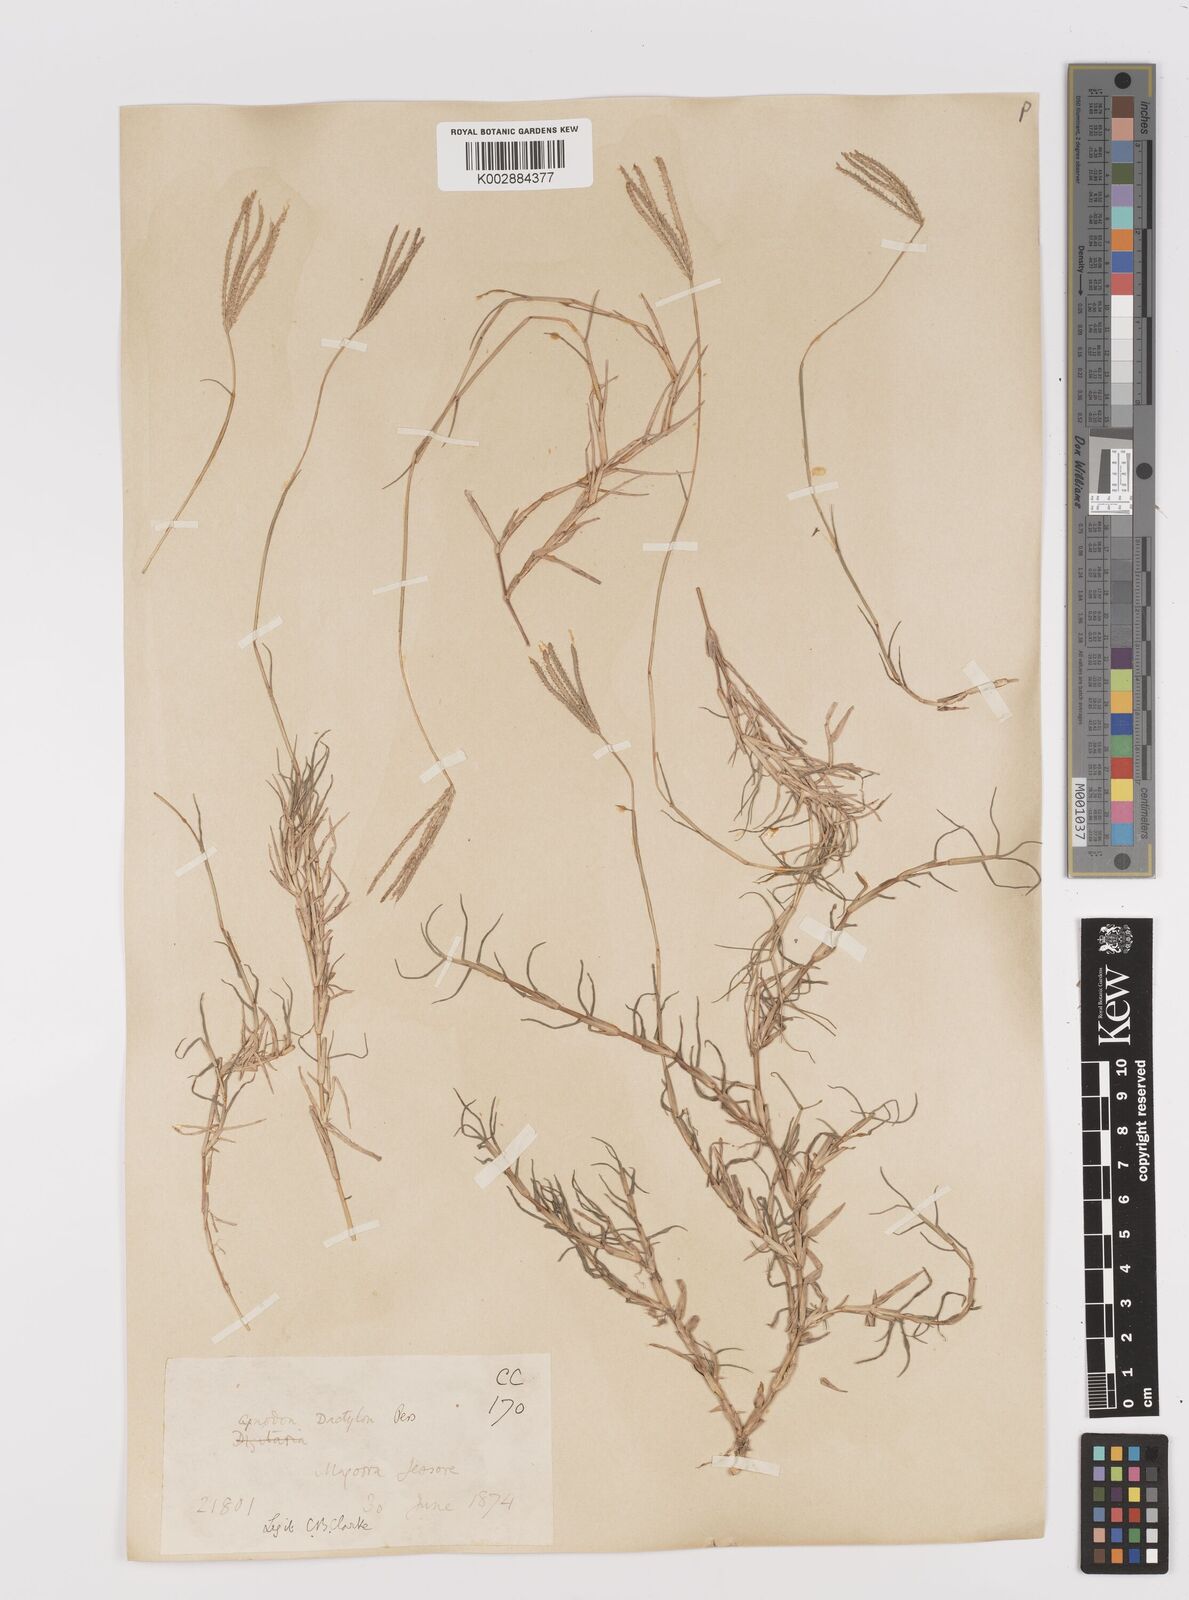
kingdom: Plantae
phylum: Tracheophyta
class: Liliopsida
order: Poales
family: Poaceae
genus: Cynodon
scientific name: Cynodon dactylon
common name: Bermuda grass
